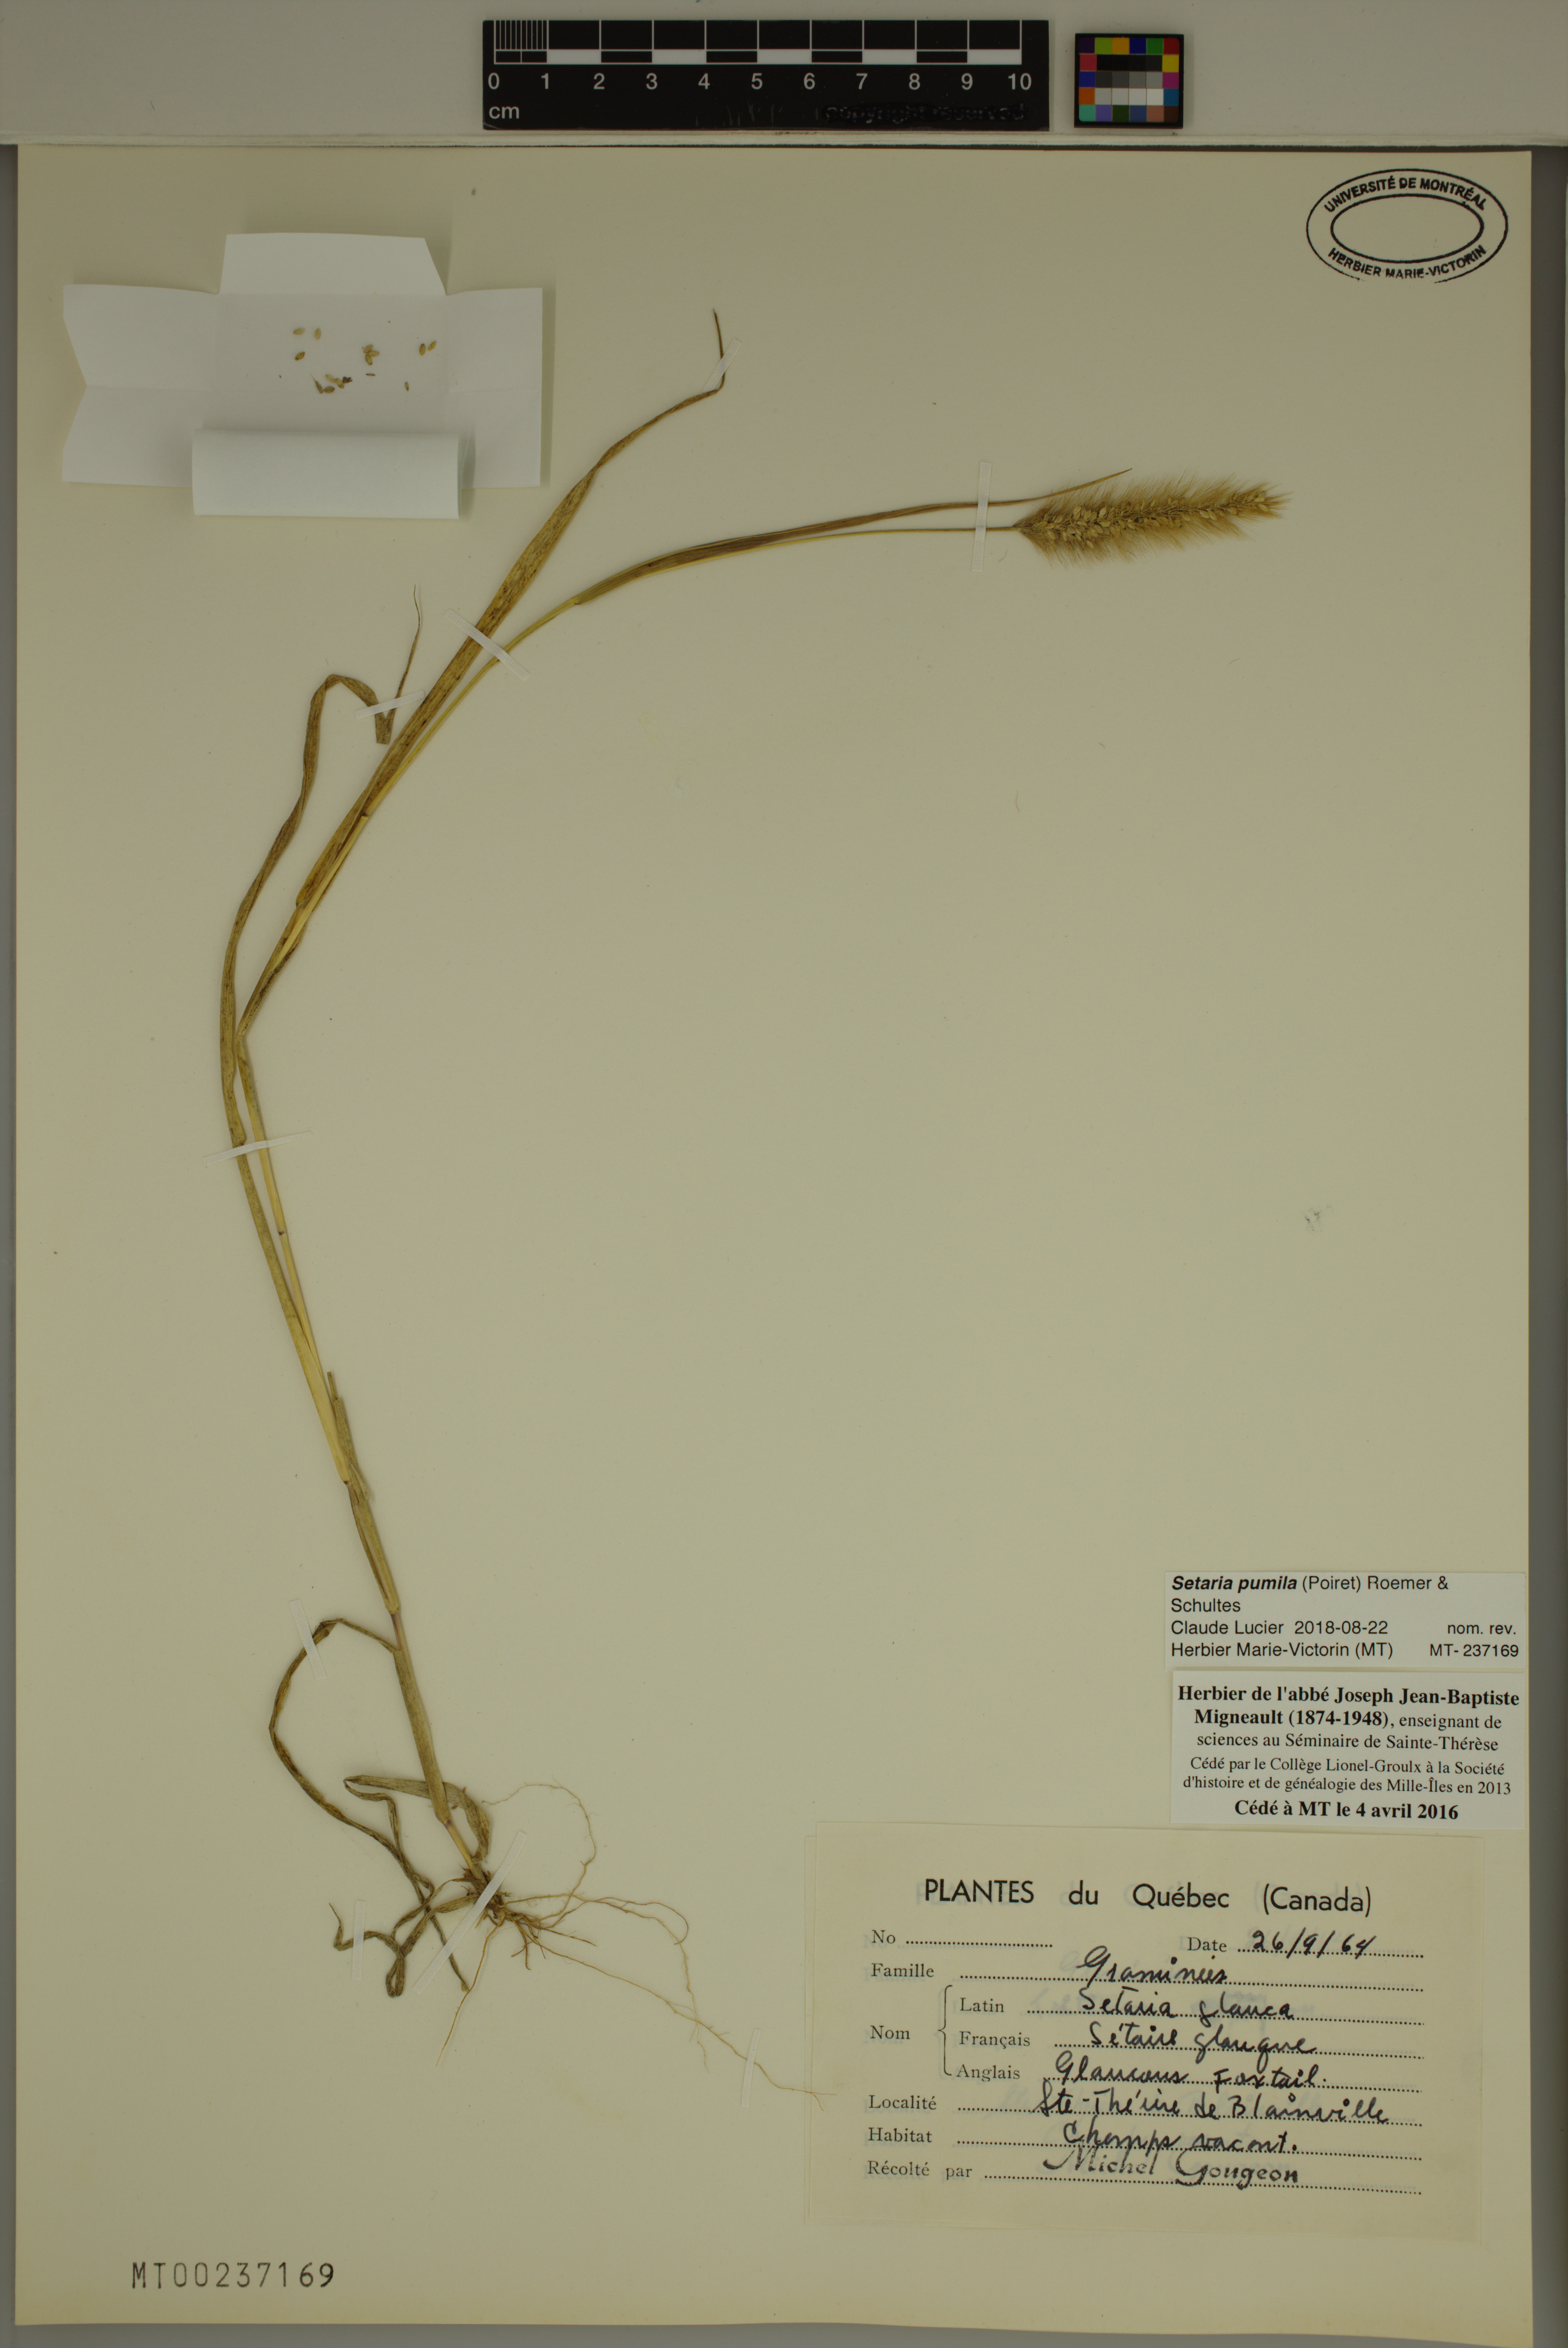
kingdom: Plantae
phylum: Tracheophyta
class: Liliopsida
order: Poales
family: Poaceae
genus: Setaria
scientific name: Setaria pumila
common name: Yellow bristle-grass
